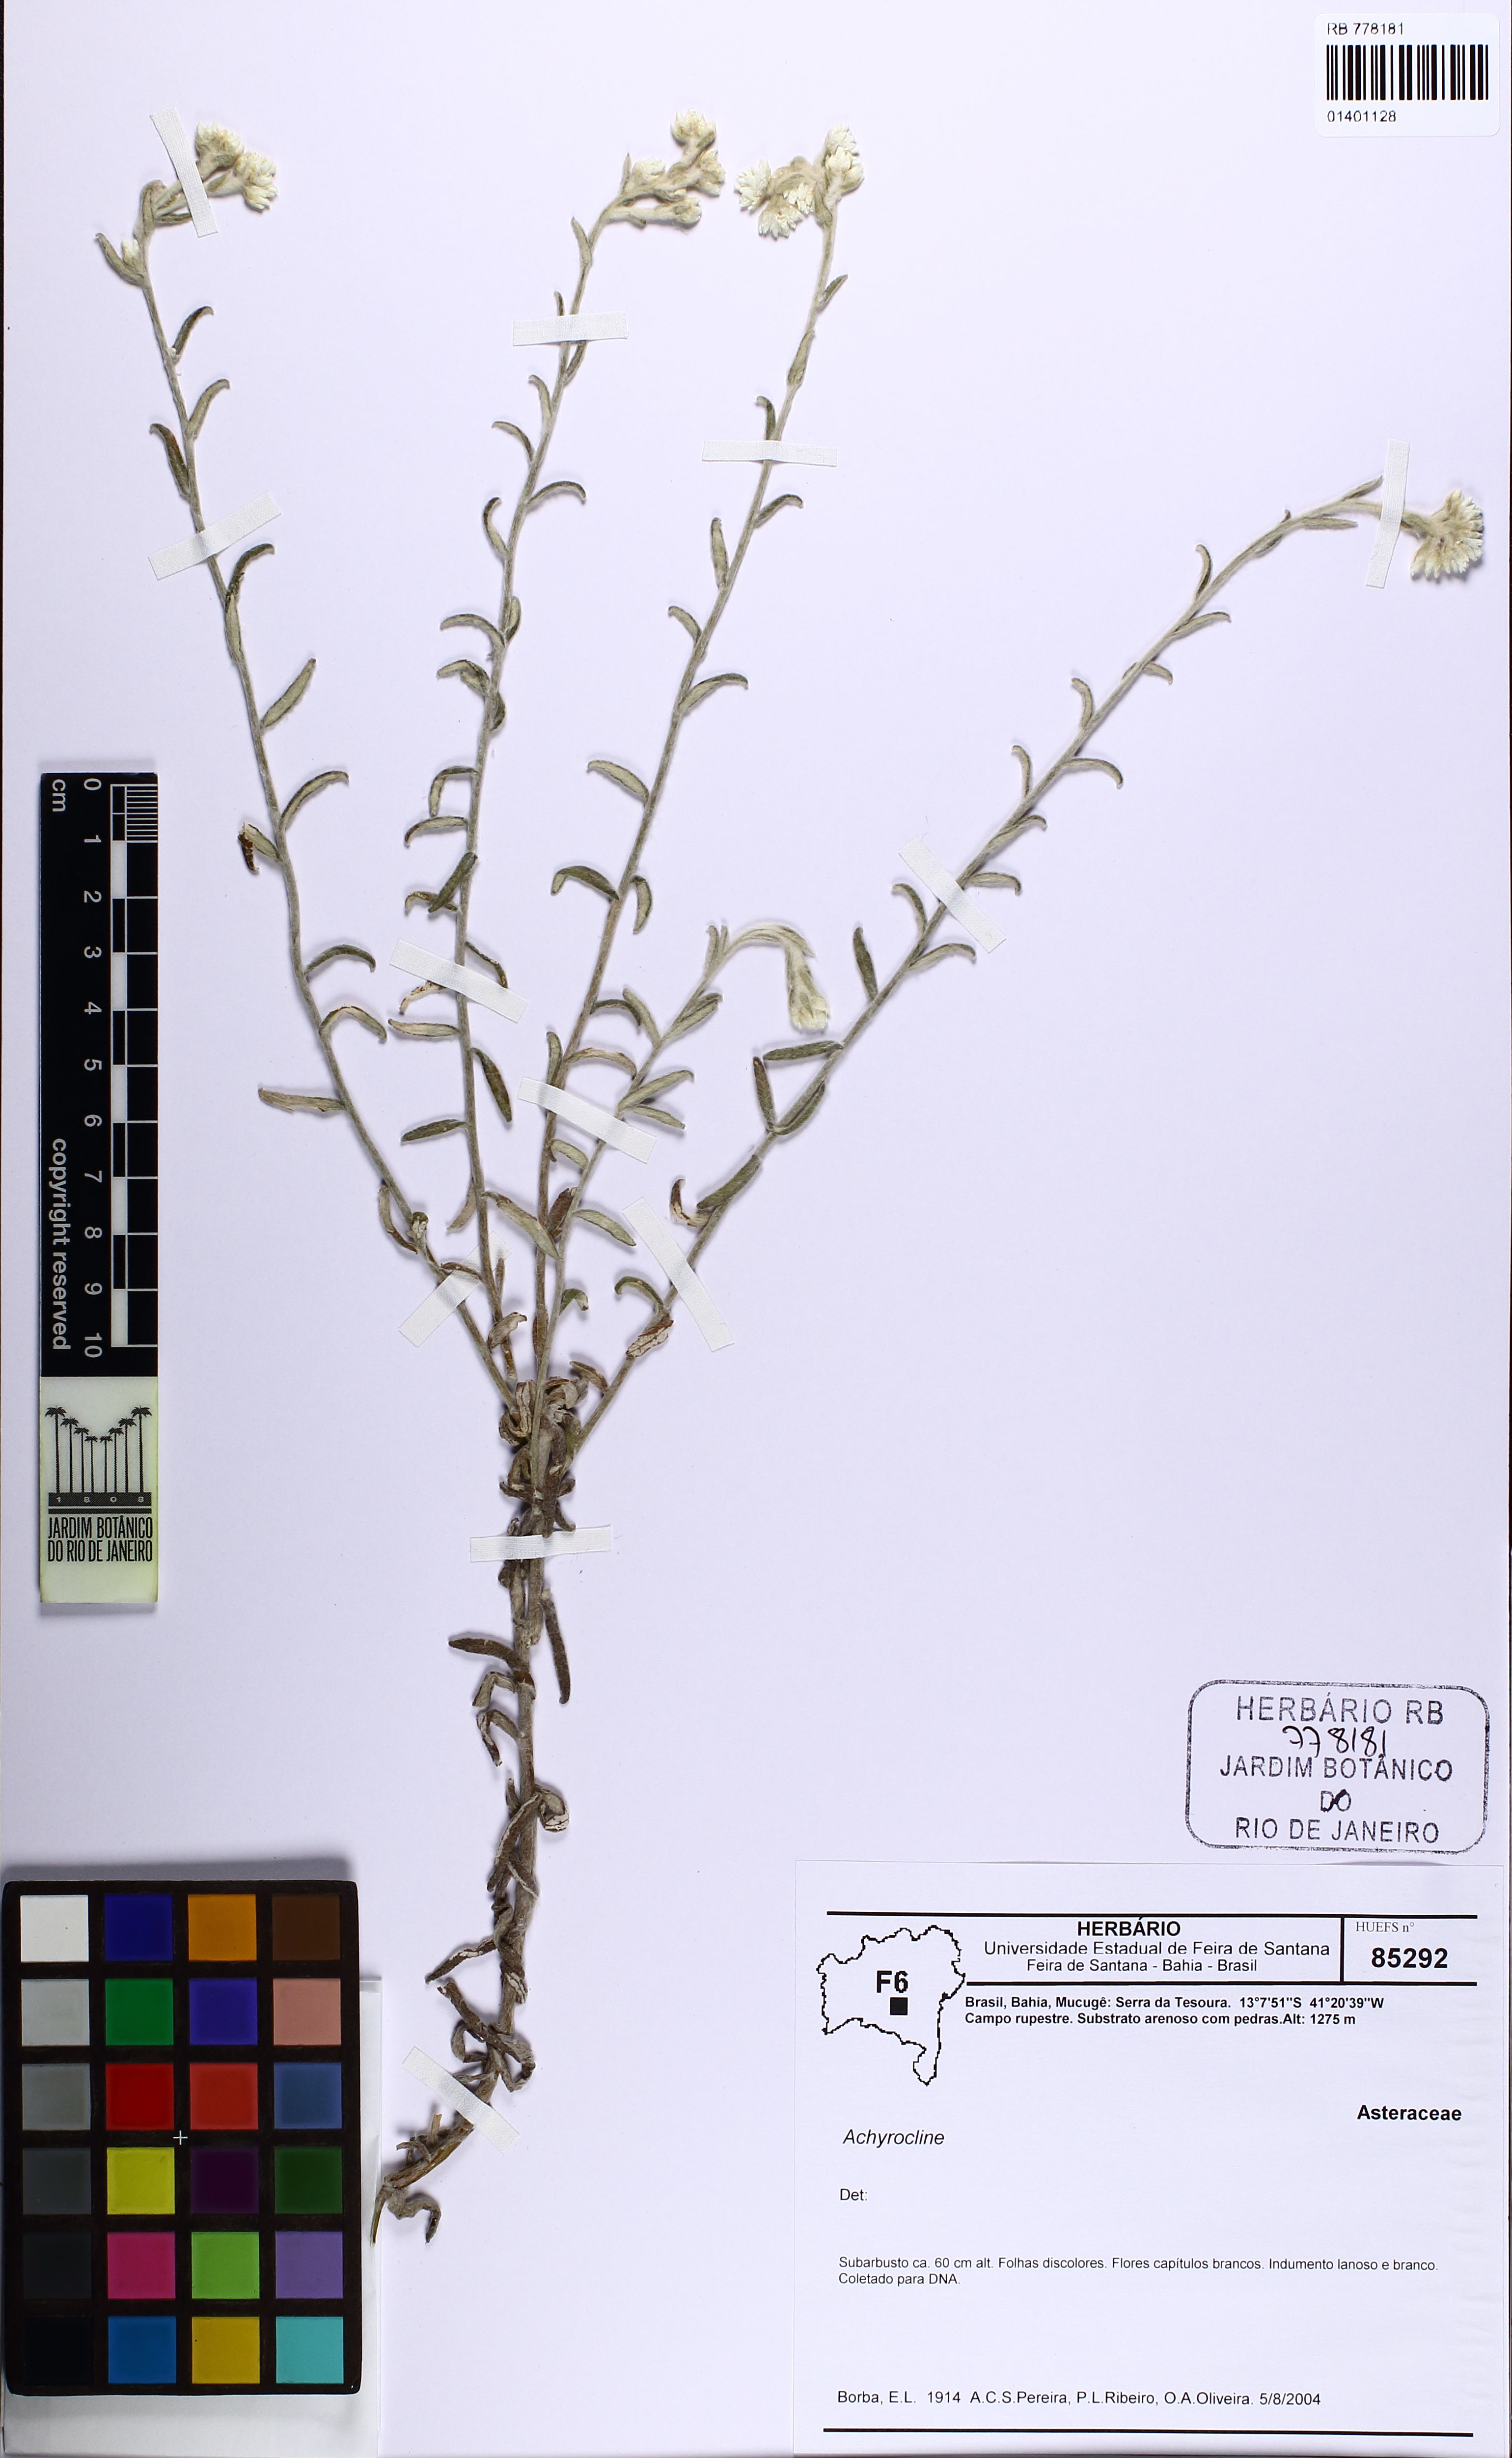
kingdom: Plantae
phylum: Tracheophyta
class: Magnoliopsida
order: Asterales
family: Asteraceae
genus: Achyrocline
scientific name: Achyrocline
